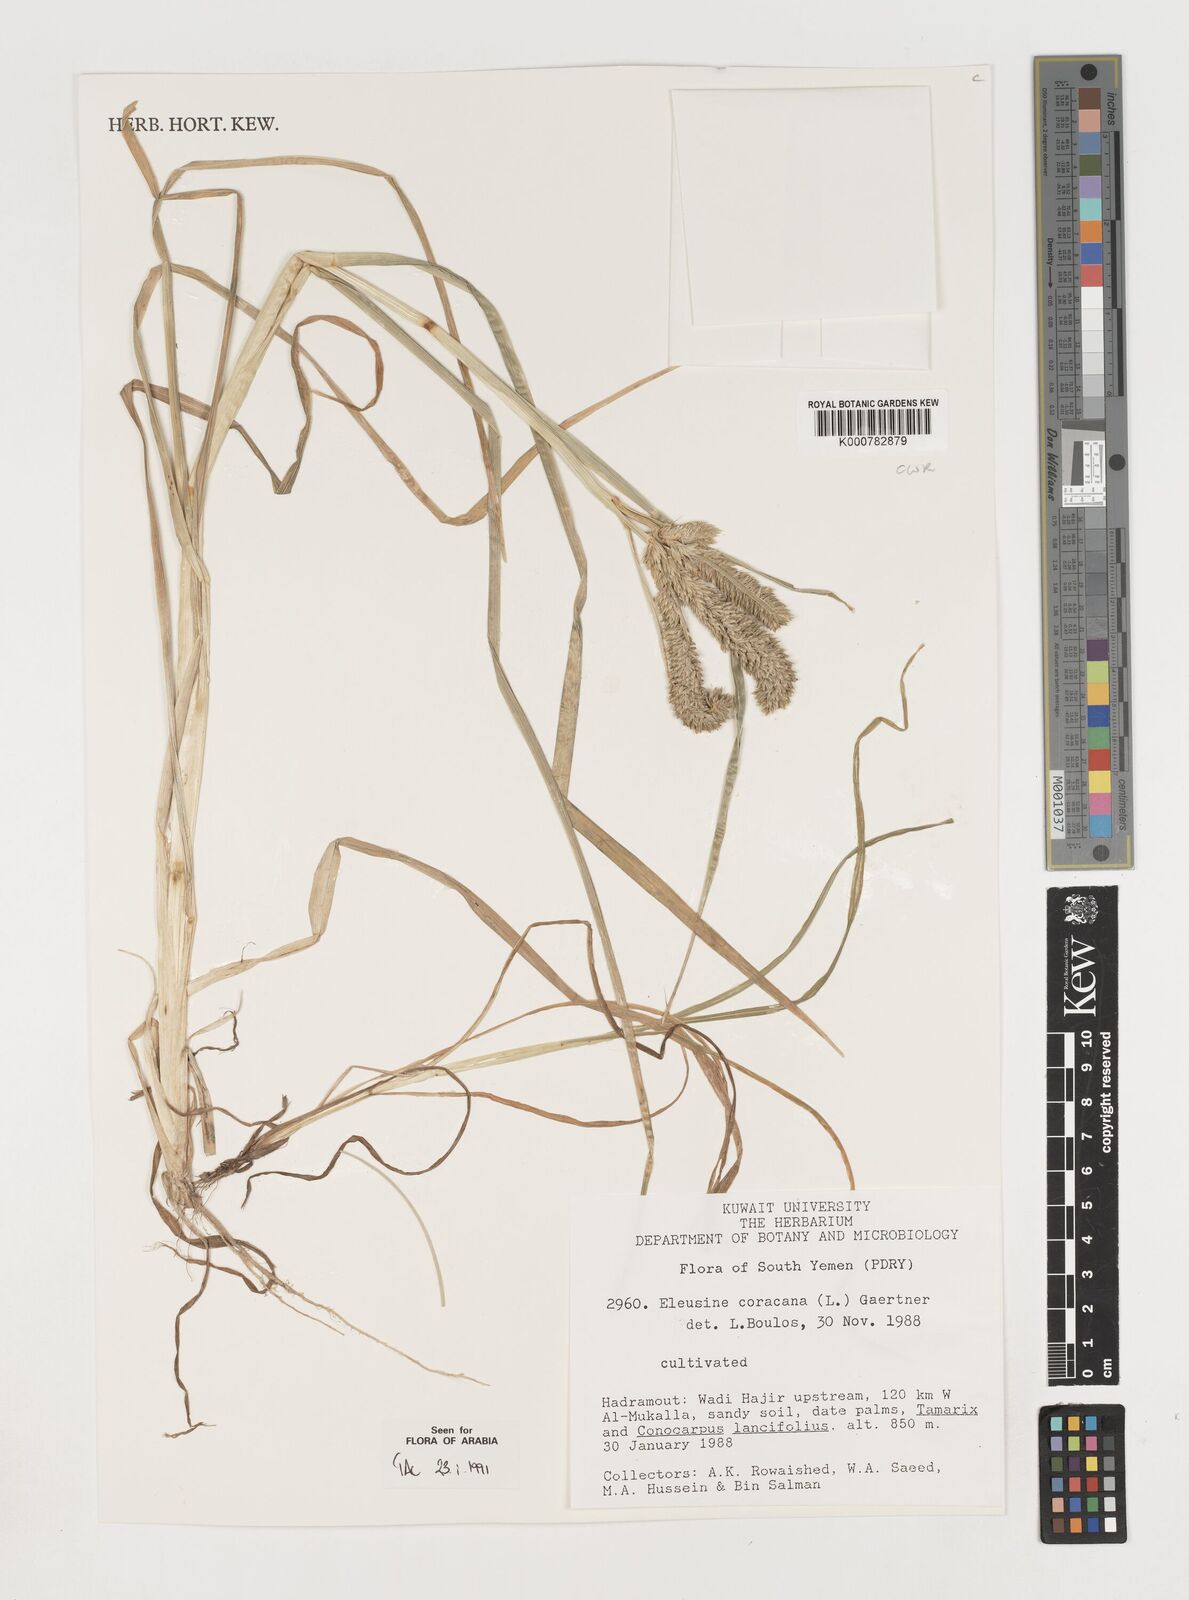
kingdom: Plantae
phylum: Tracheophyta
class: Liliopsida
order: Poales
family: Poaceae
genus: Eleusine
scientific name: Eleusine coracana
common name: Finger millet
